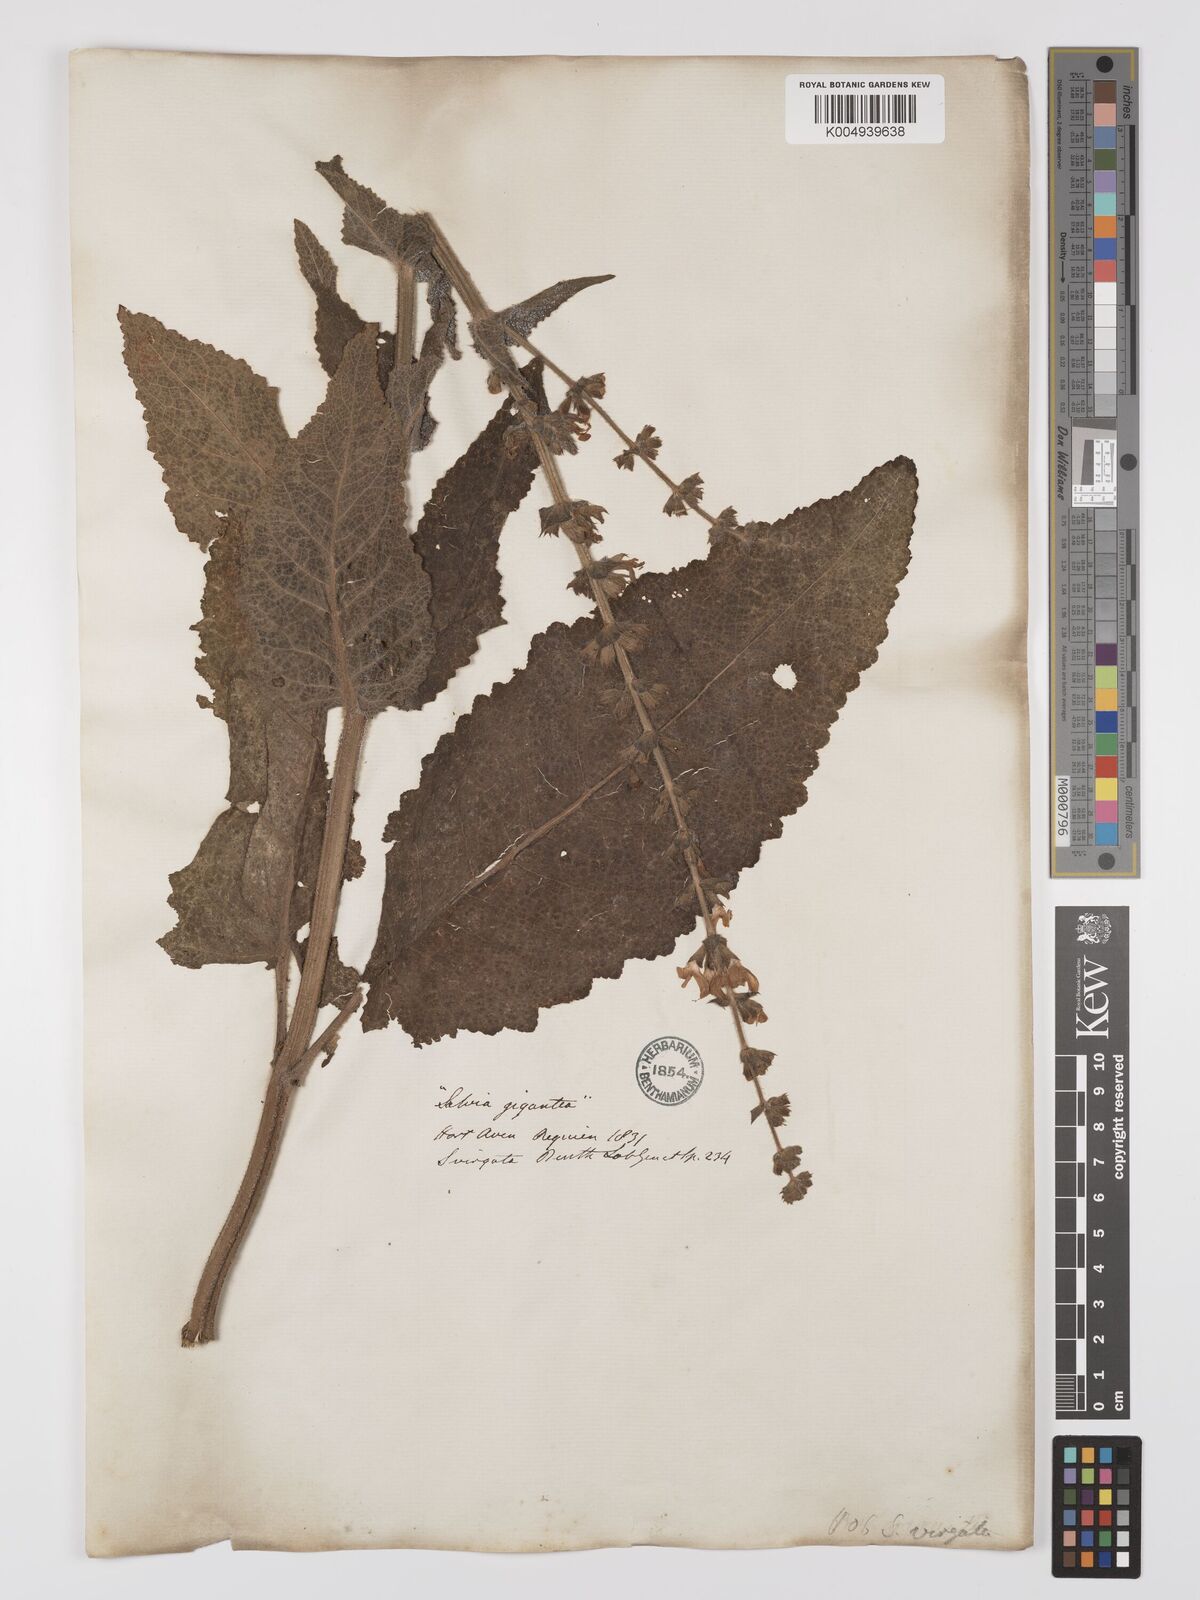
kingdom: Plantae
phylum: Tracheophyta
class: Magnoliopsida
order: Lamiales
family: Lamiaceae
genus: Salvia
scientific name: Salvia
